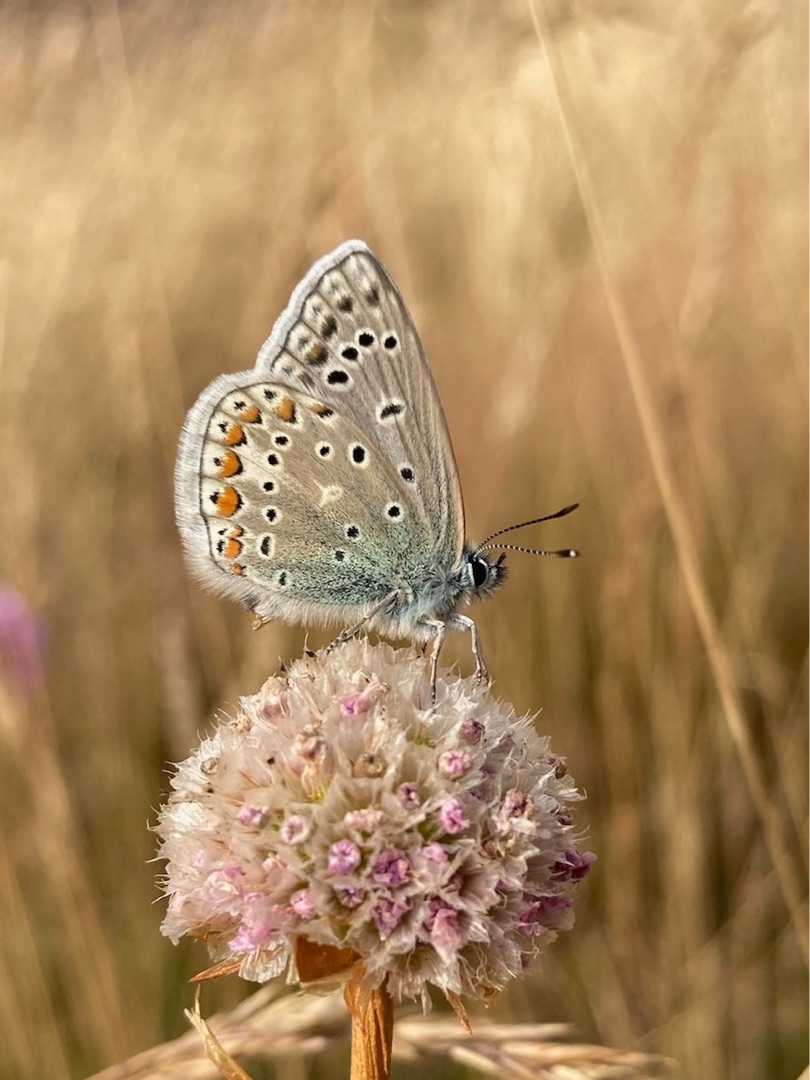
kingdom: Animalia
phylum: Arthropoda
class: Insecta
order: Lepidoptera
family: Lycaenidae
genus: Polyommatus
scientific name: Polyommatus icarus
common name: Almindelig blåfugl
